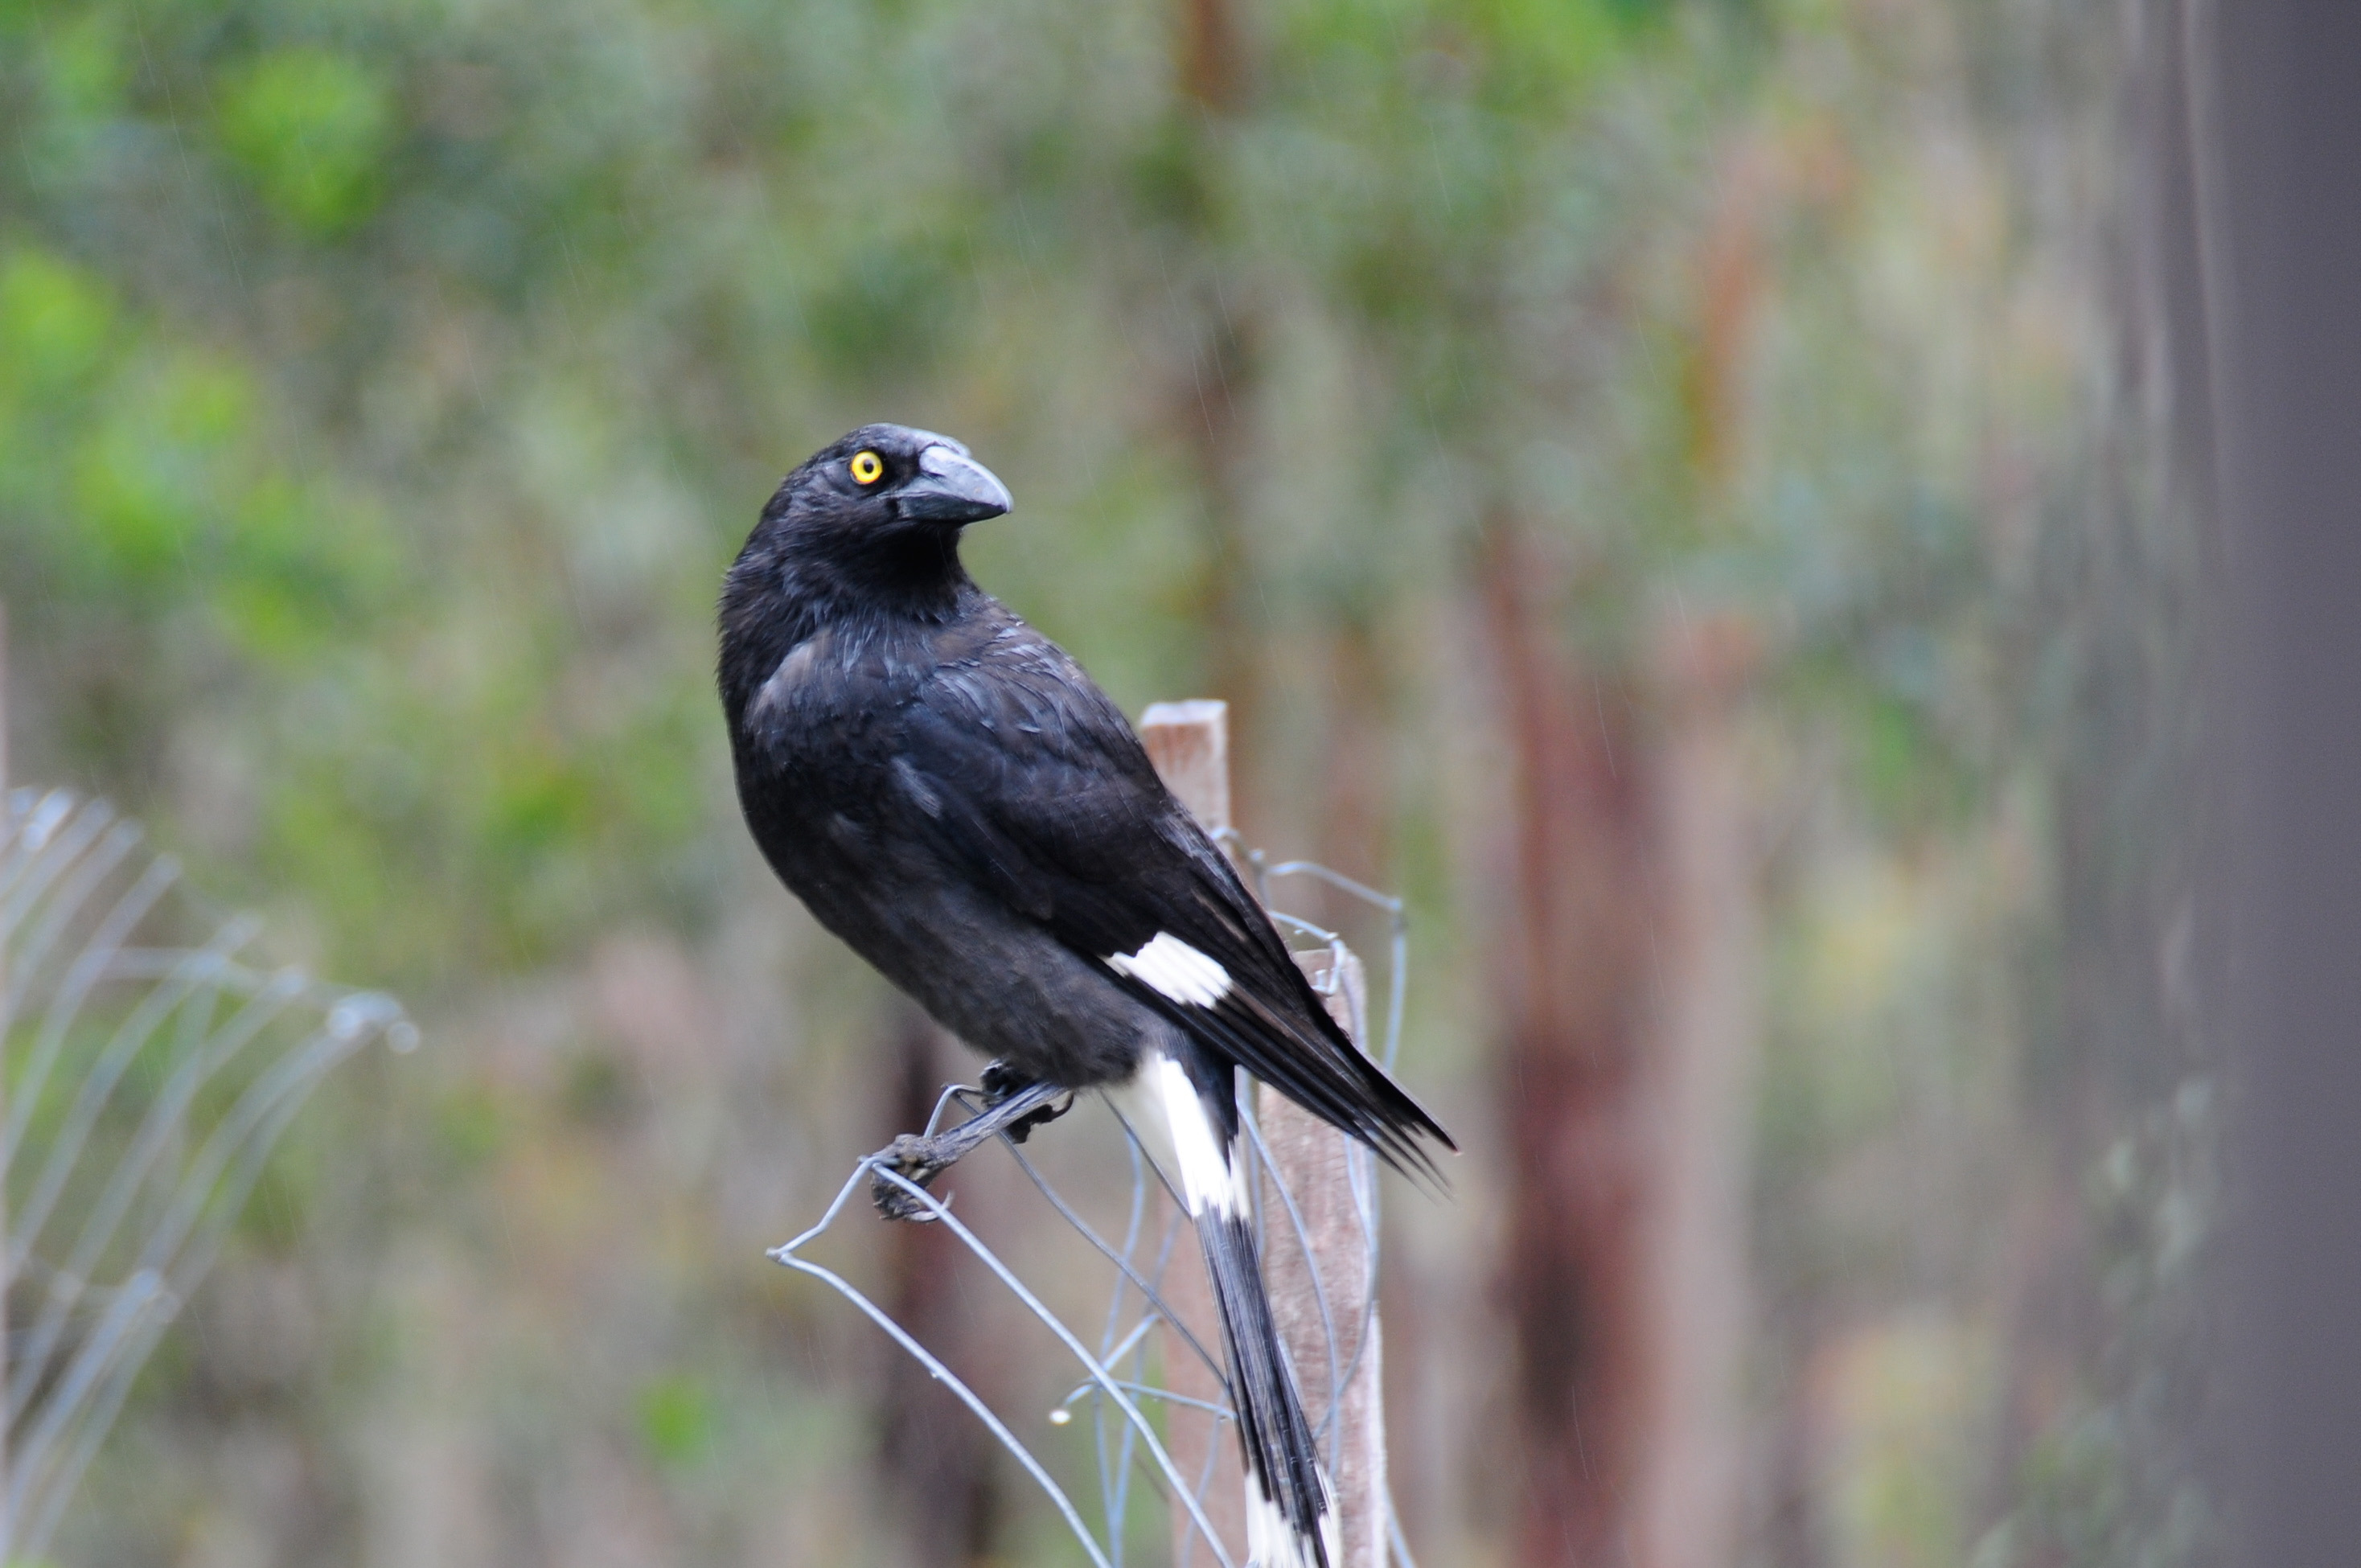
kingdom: Animalia
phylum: Chordata
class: Aves
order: Passeriformes
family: Cracticidae
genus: Strepera
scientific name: Strepera graculina
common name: Pied currawong
